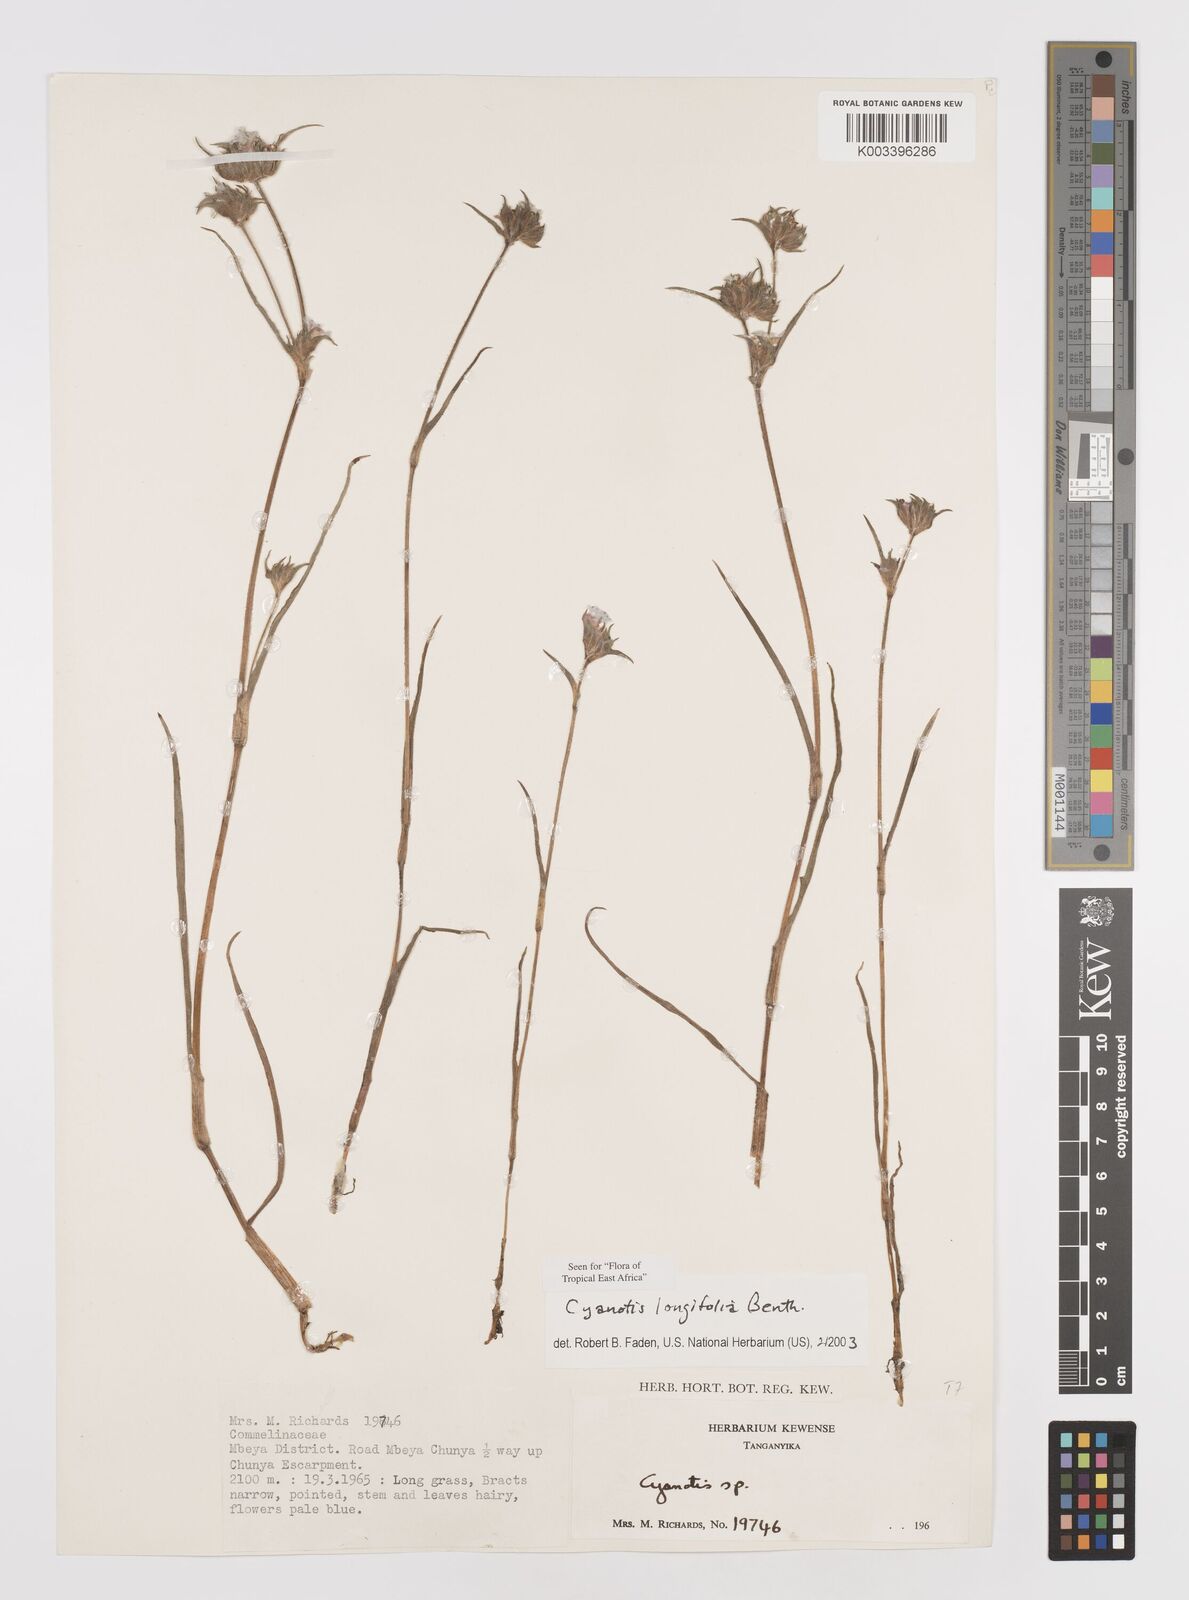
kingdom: Plantae
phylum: Tracheophyta
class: Liliopsida
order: Commelinales
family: Commelinaceae
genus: Cyanotis
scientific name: Cyanotis longifolia
